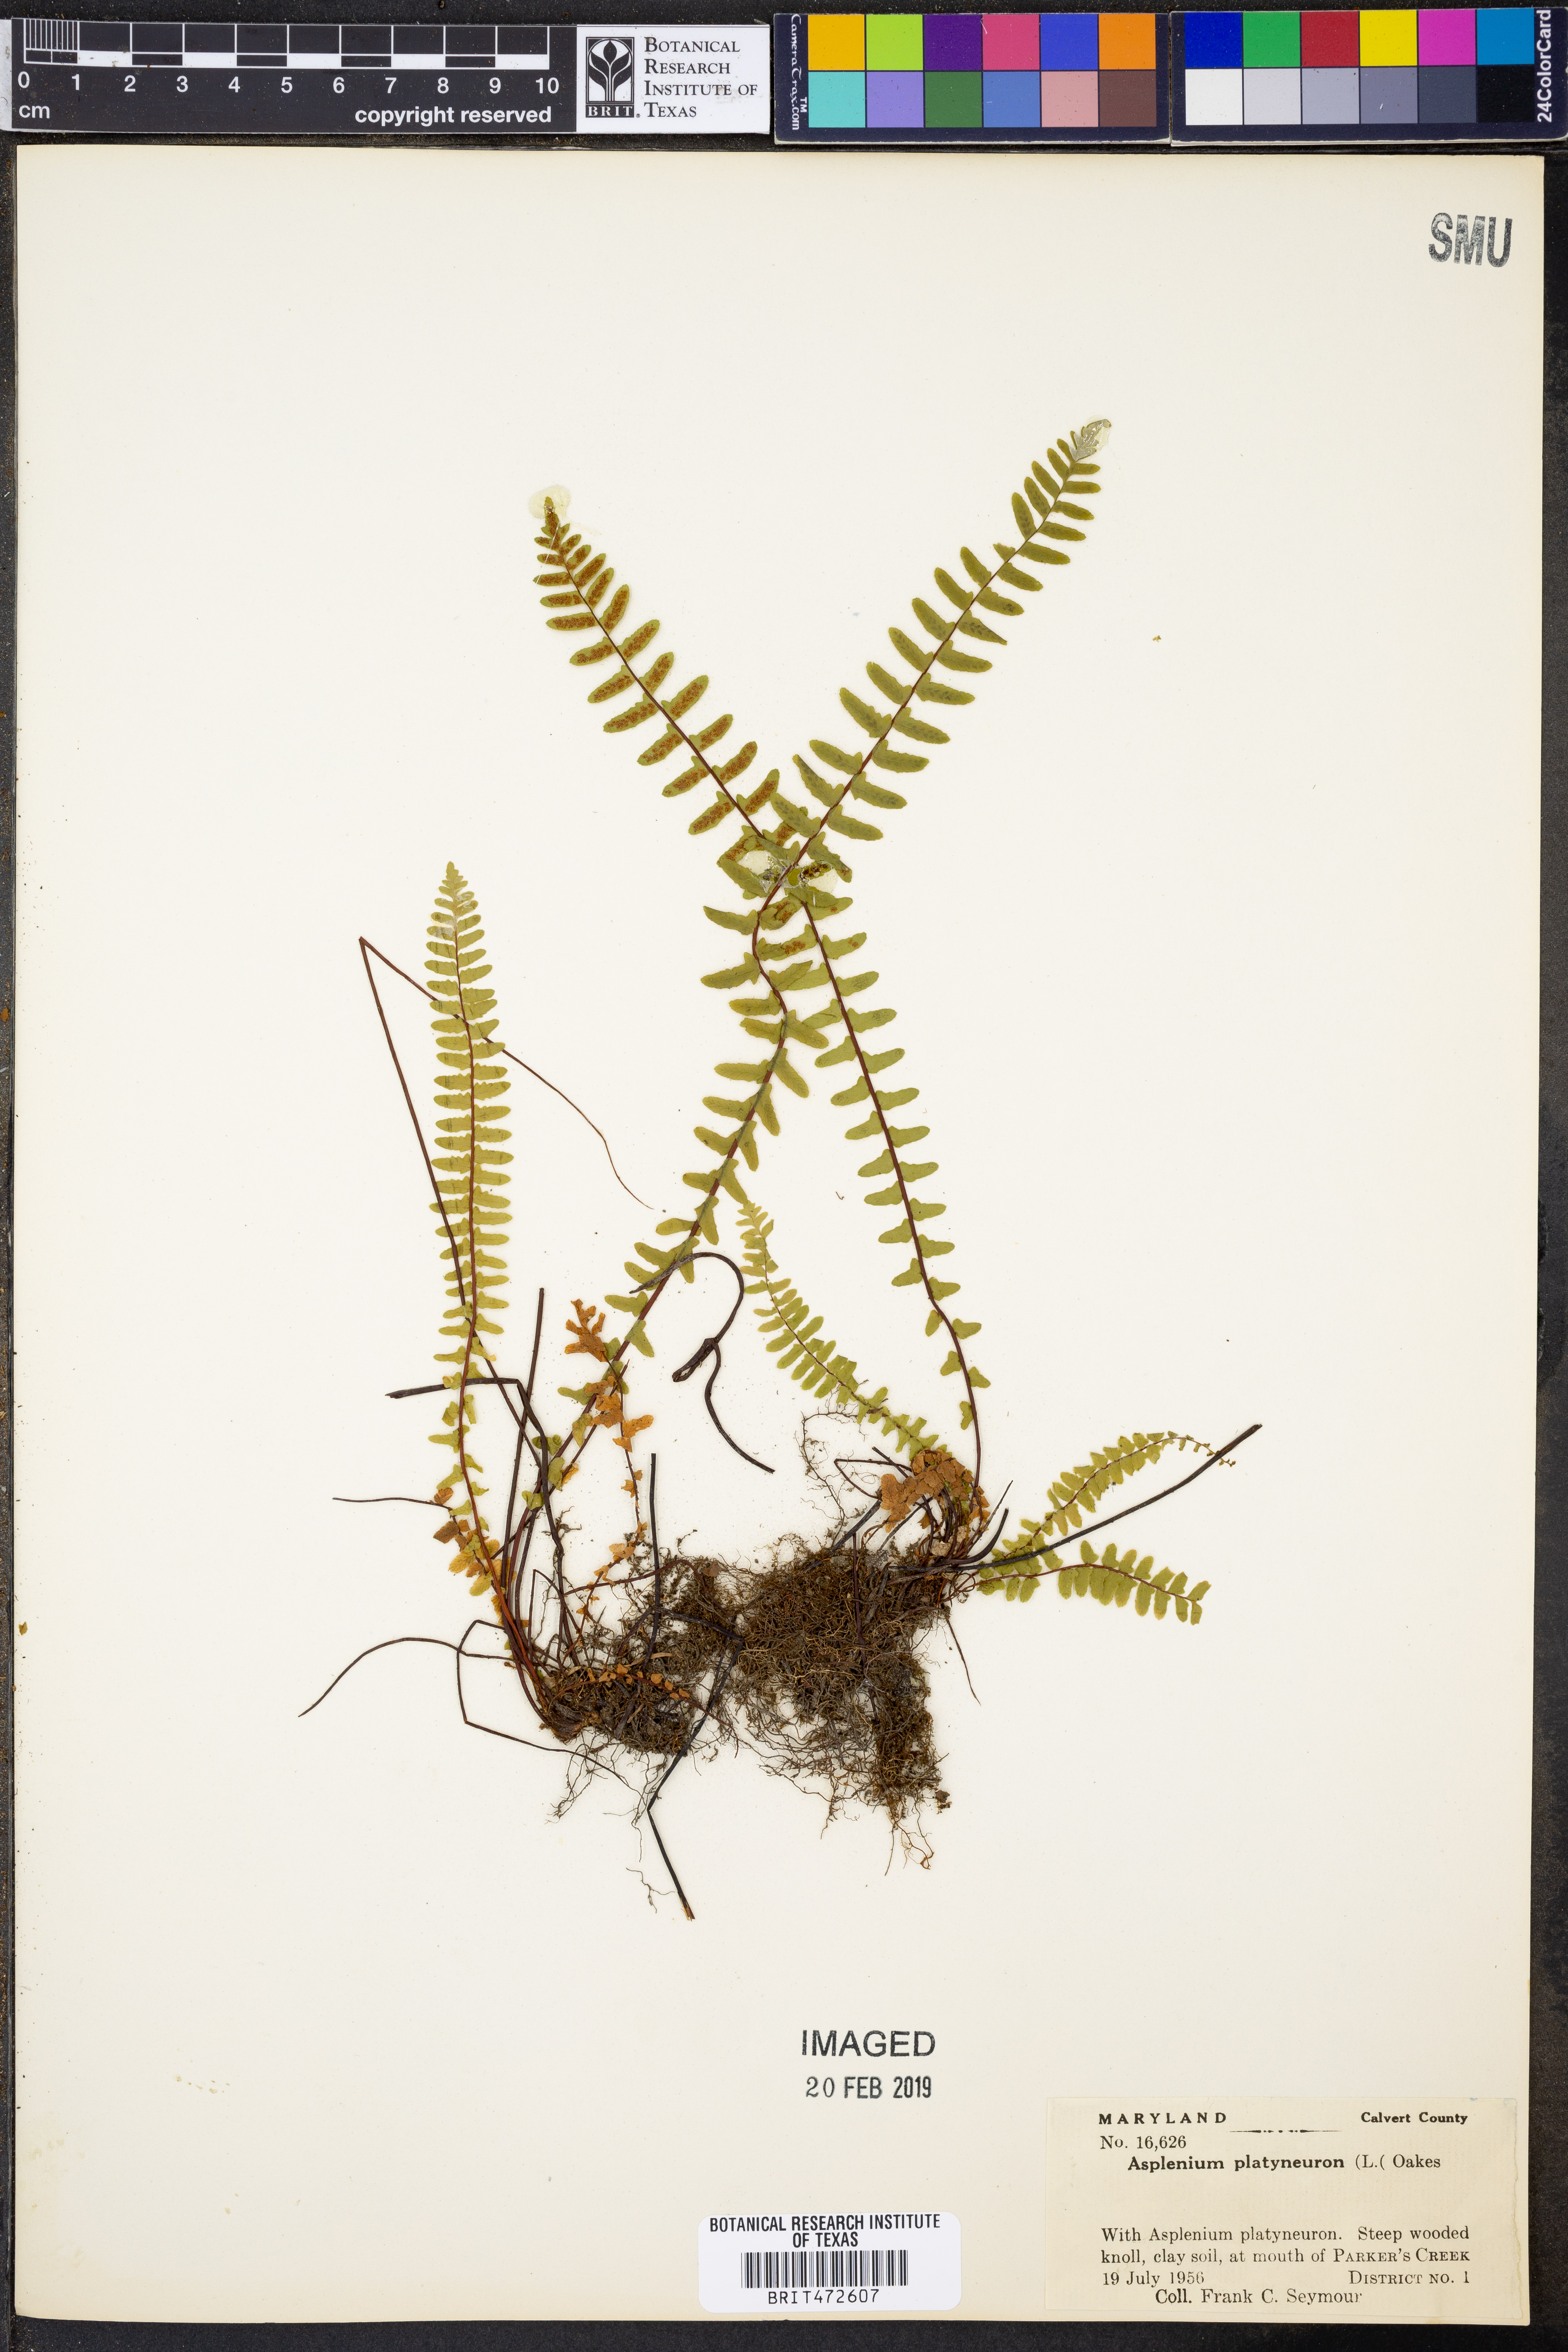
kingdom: Plantae
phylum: Tracheophyta
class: Polypodiopsida
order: Polypodiales
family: Aspleniaceae
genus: Asplenium
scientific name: Asplenium platyneuron
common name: Ebony spleenwort
